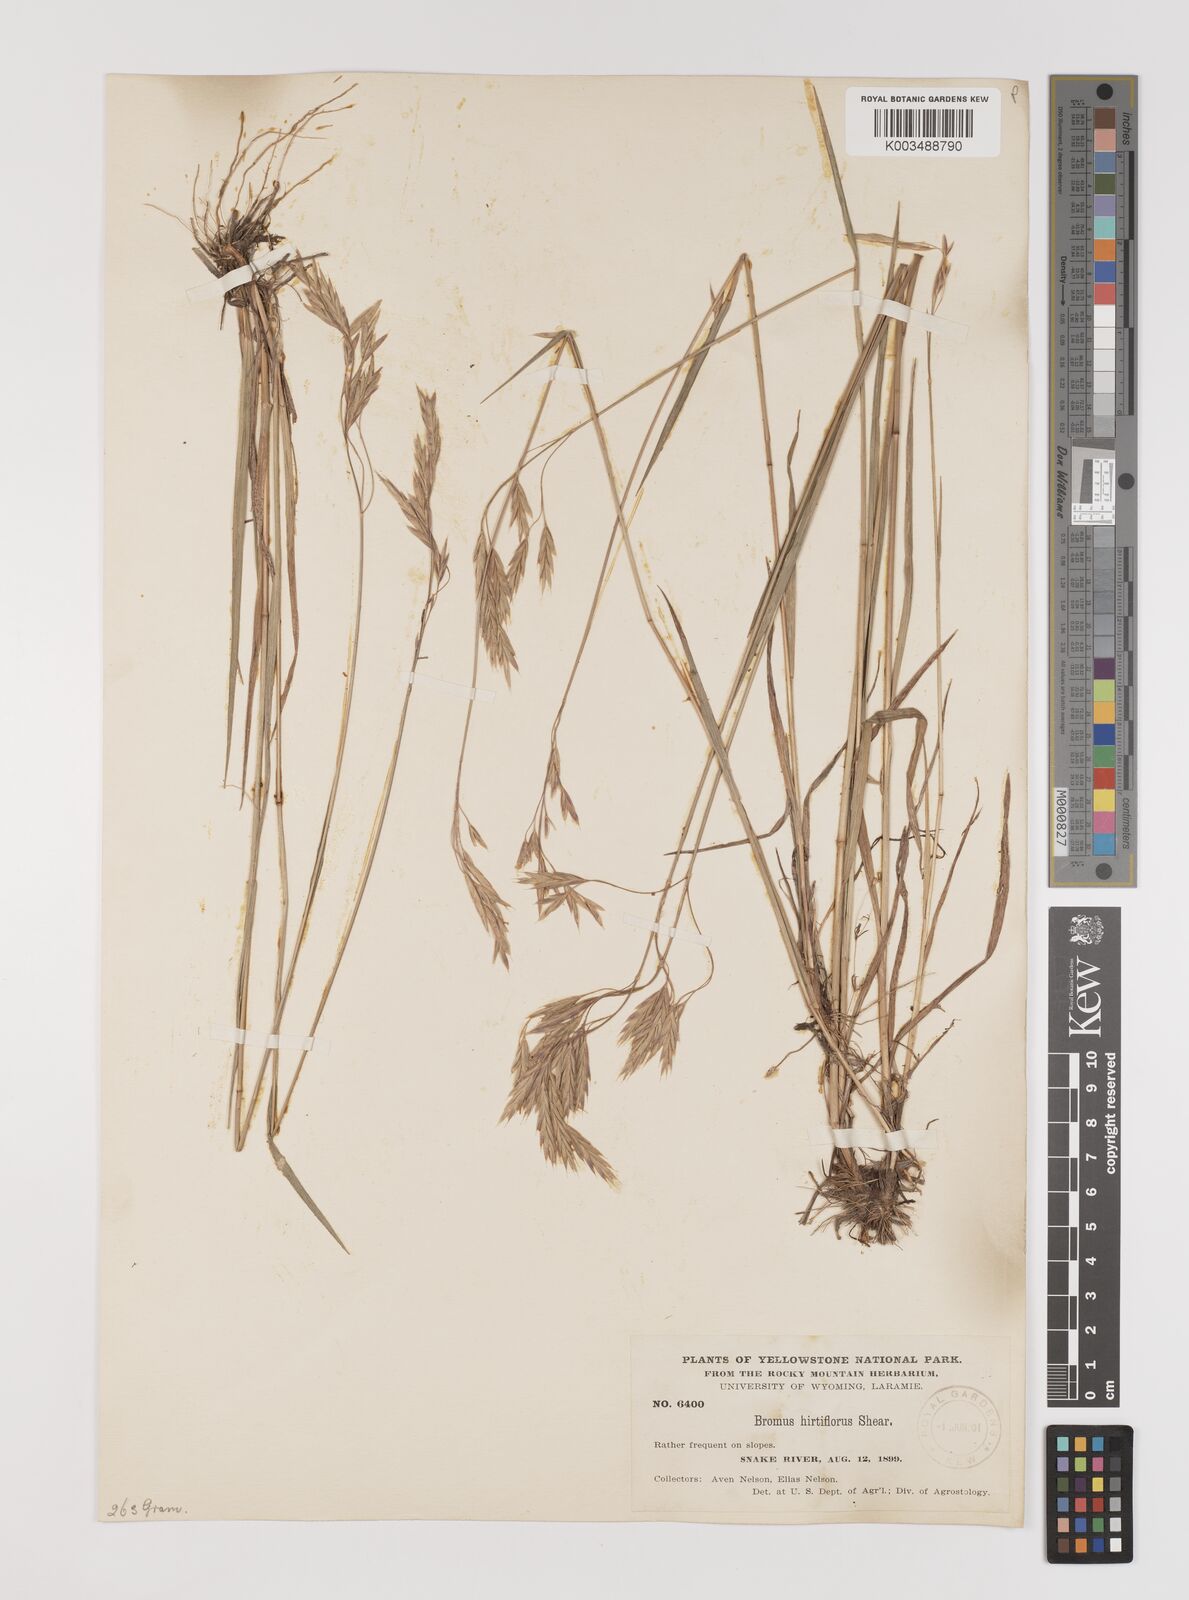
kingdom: Plantae
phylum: Tracheophyta
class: Liliopsida
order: Poales
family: Poaceae
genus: Bromus
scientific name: Bromus
